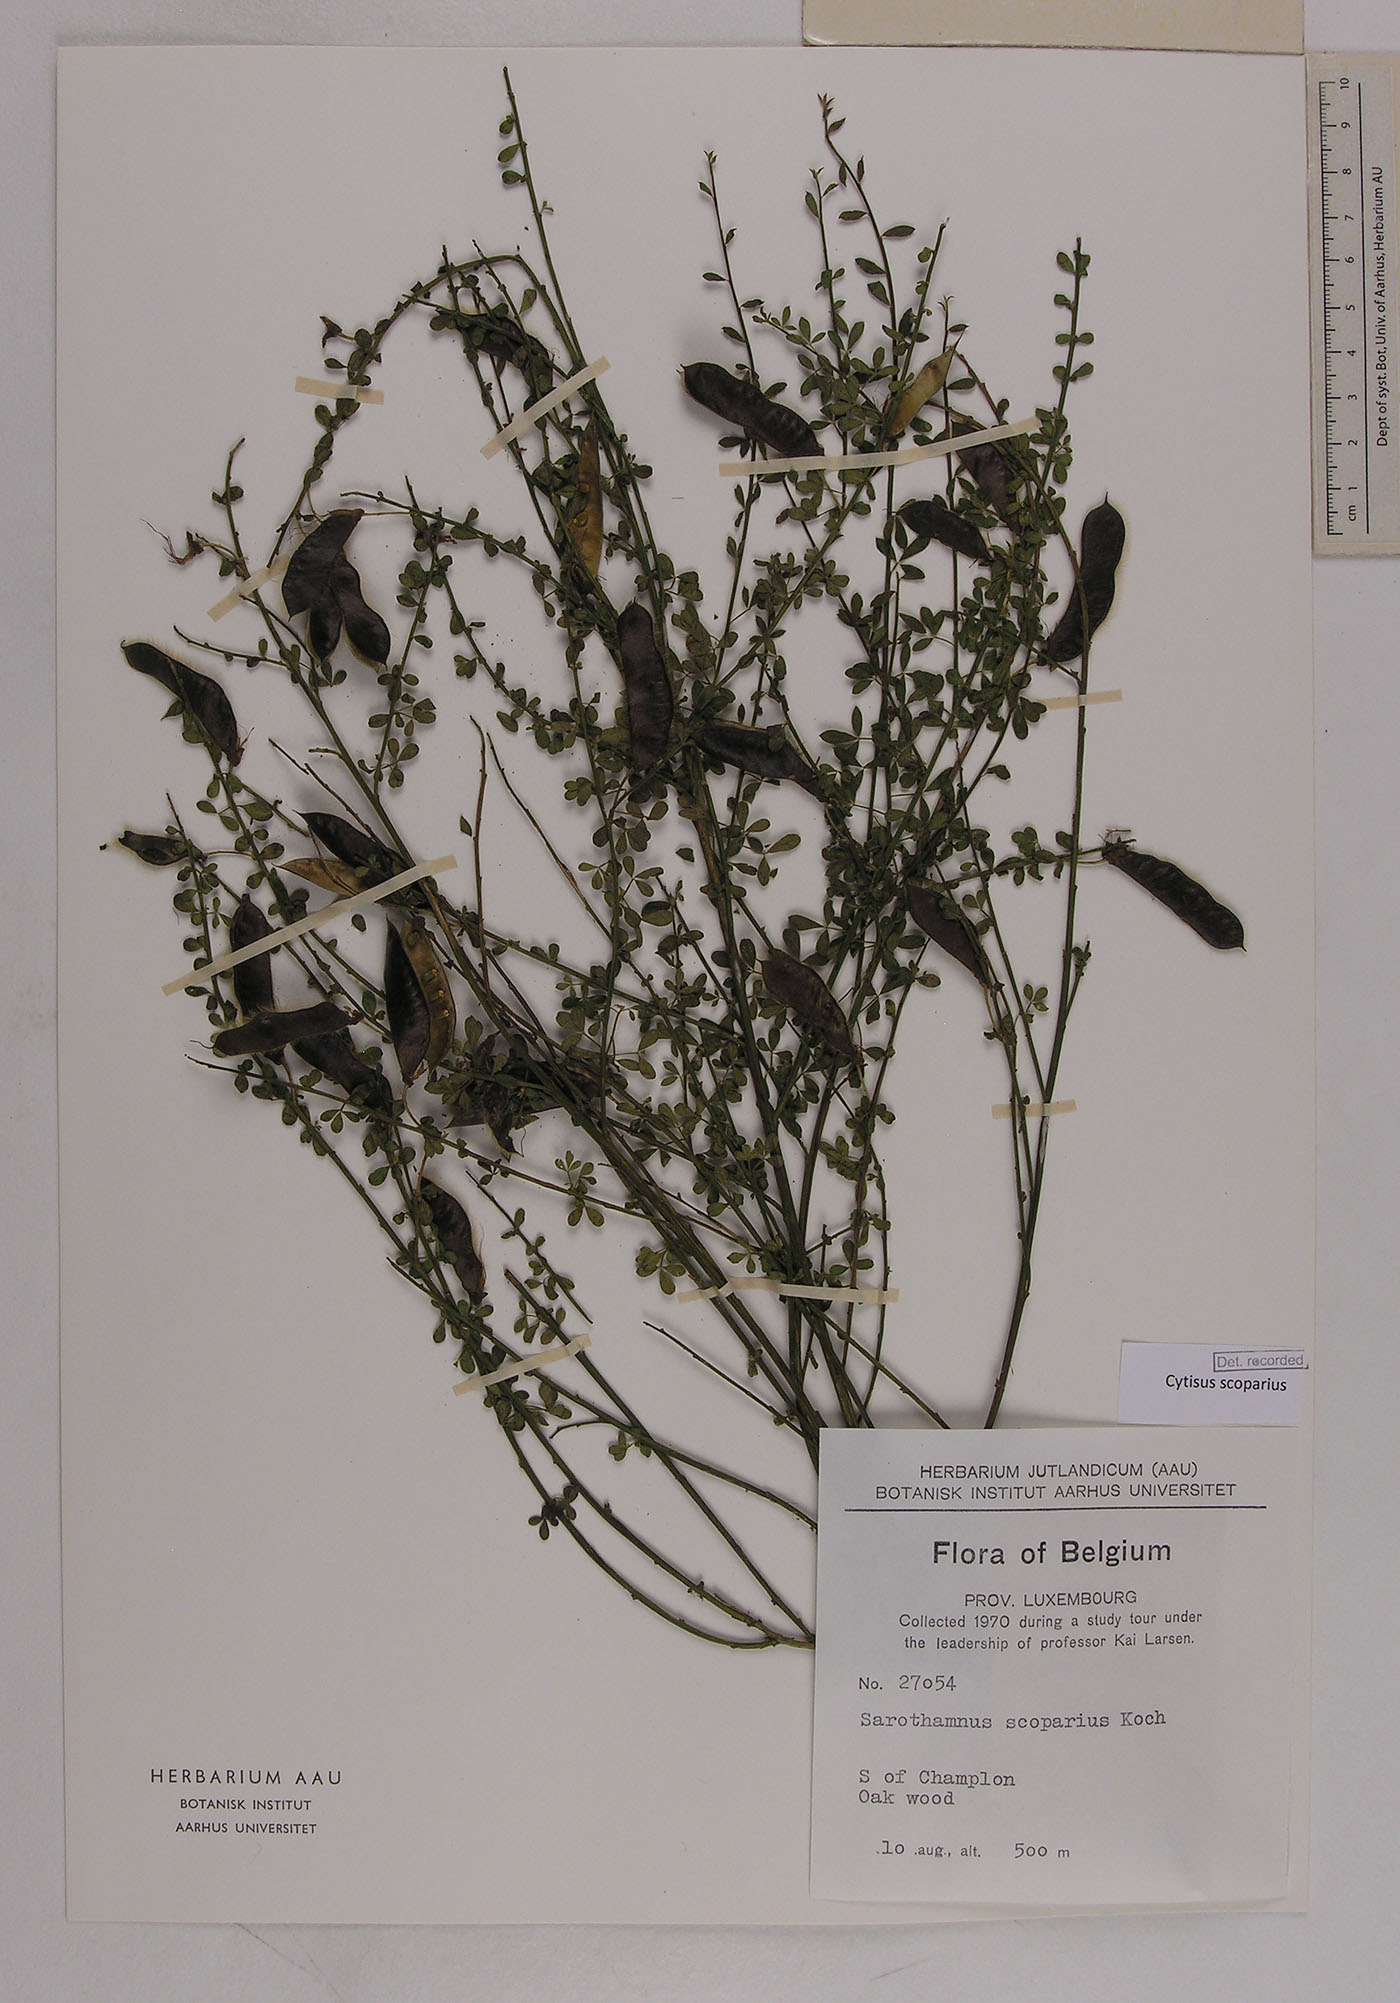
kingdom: Plantae
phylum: Tracheophyta
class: Magnoliopsida
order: Fabales
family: Fabaceae
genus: Cytisus
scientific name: Cytisus scoparius
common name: Scotch broom
